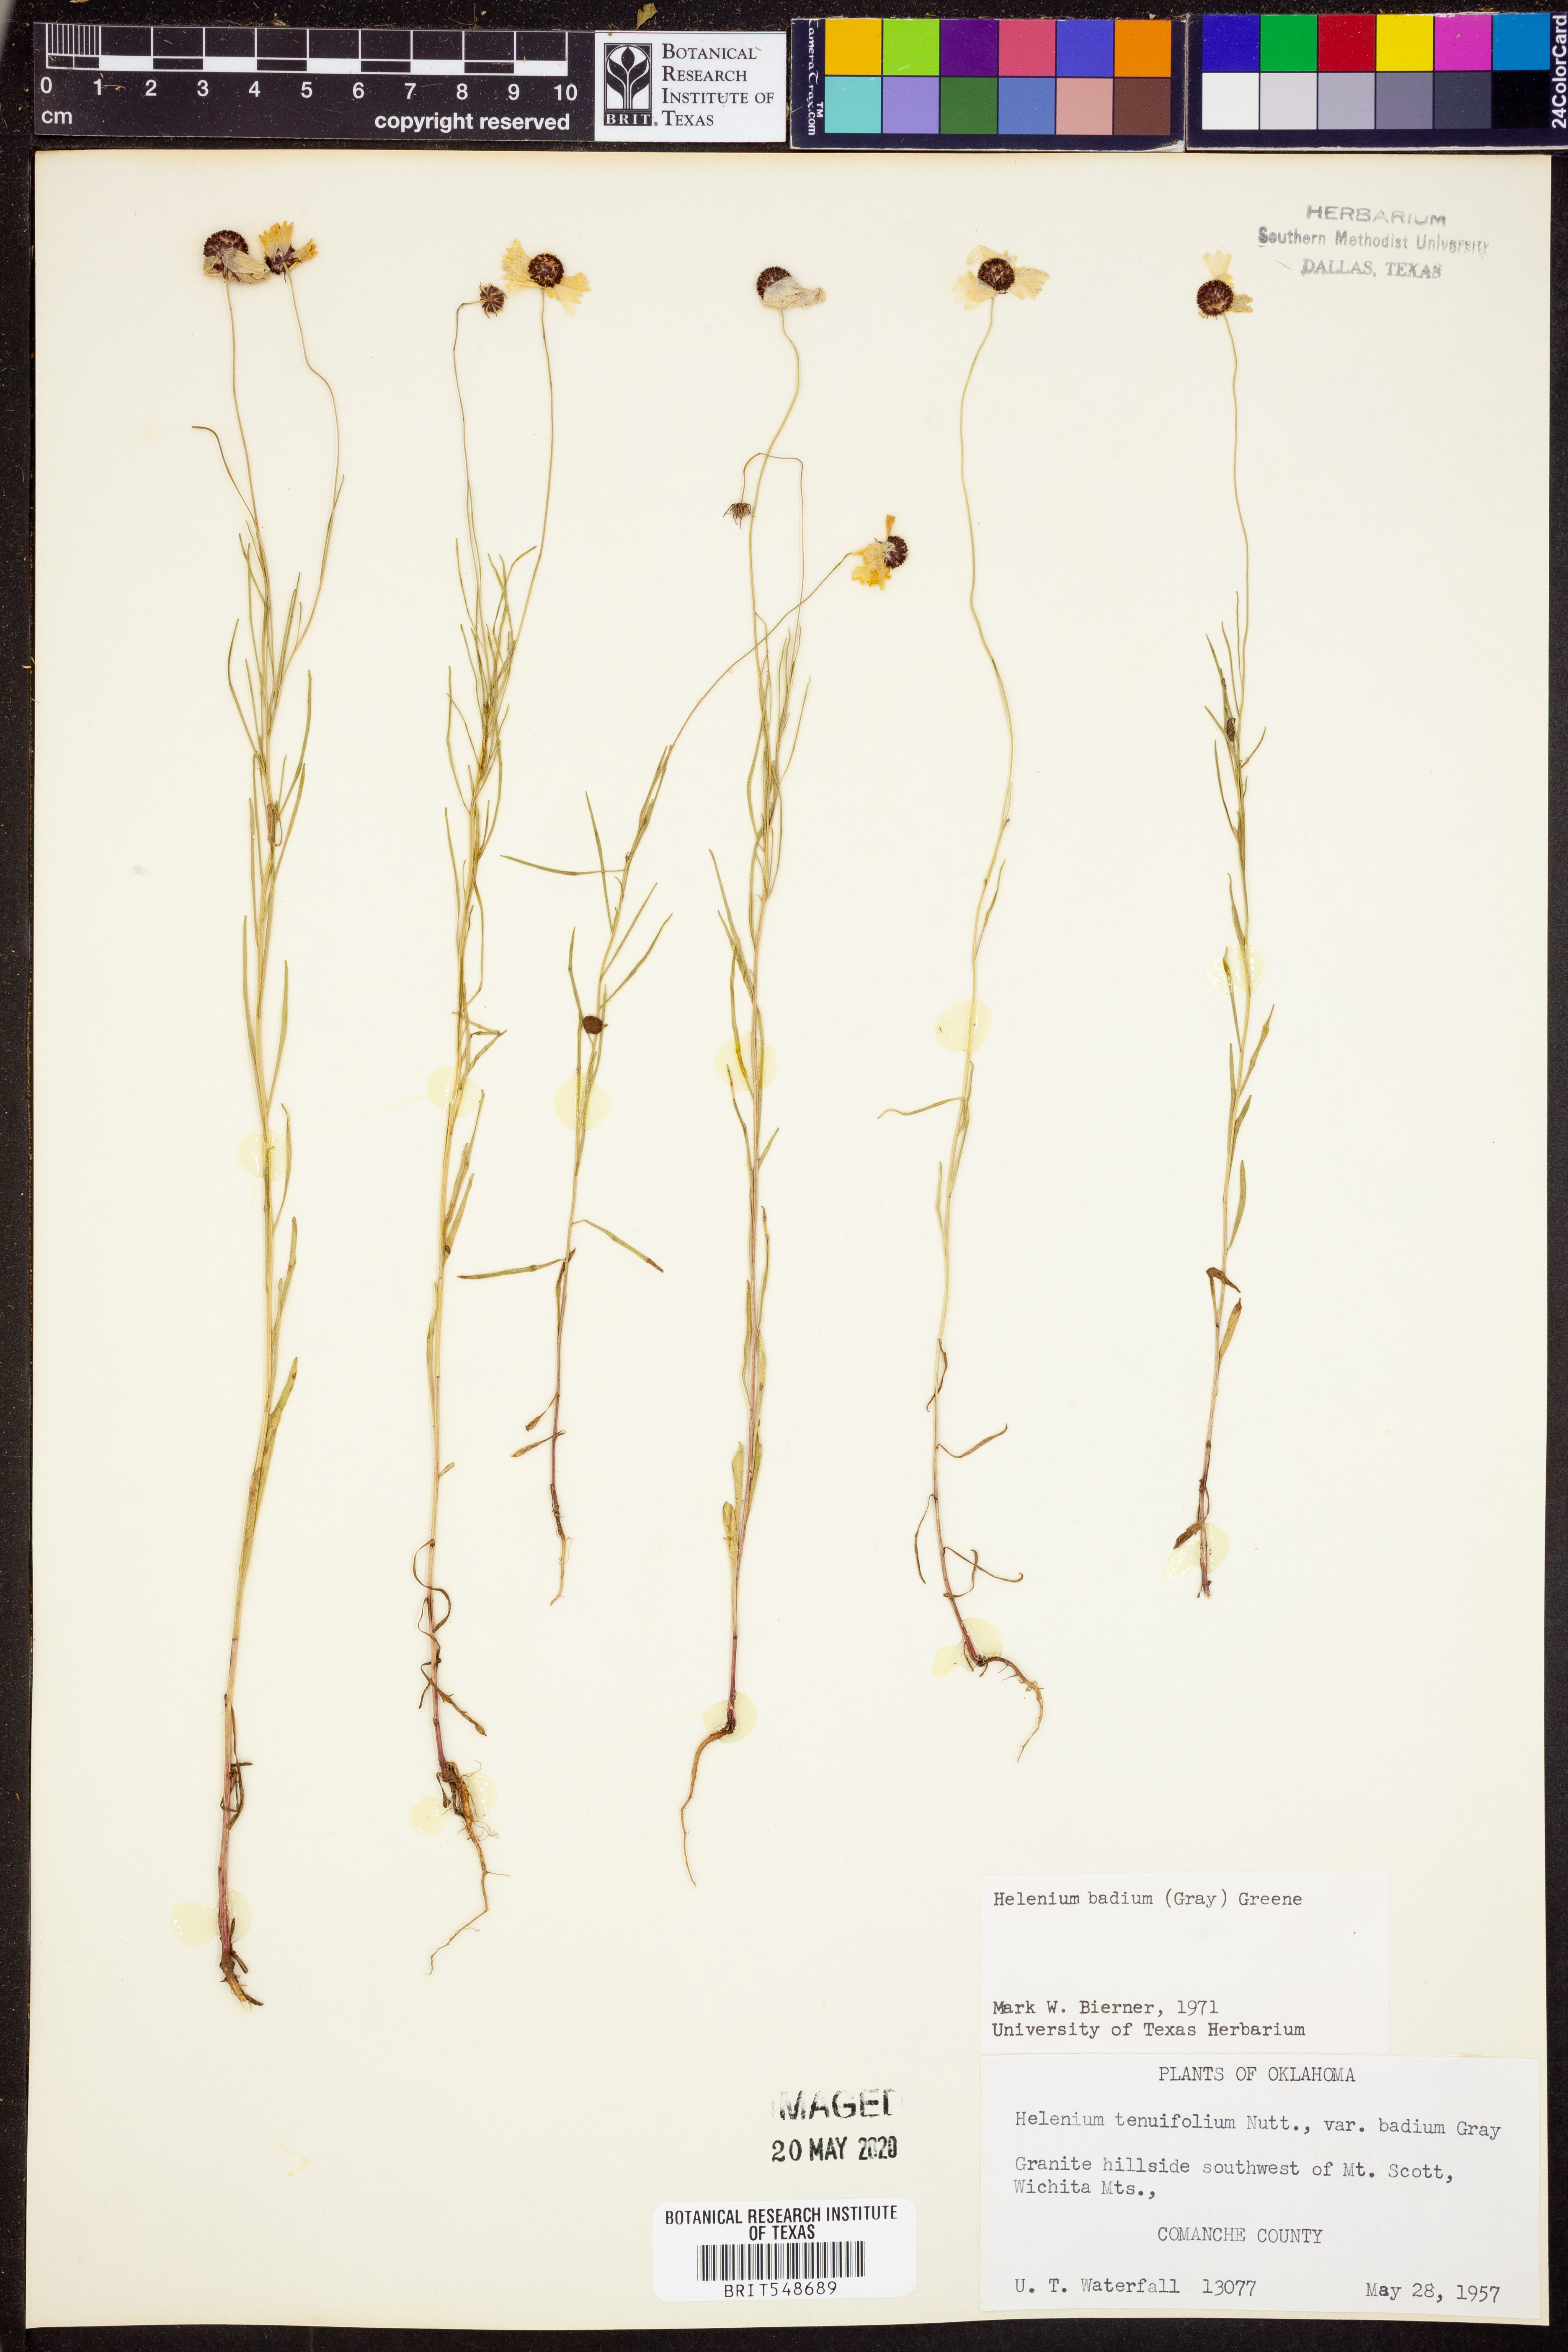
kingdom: Plantae
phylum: Tracheophyta
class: Magnoliopsida
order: Asterales
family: Asteraceae
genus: Helenium
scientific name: Helenium amarum
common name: Bitter sneezeweed
